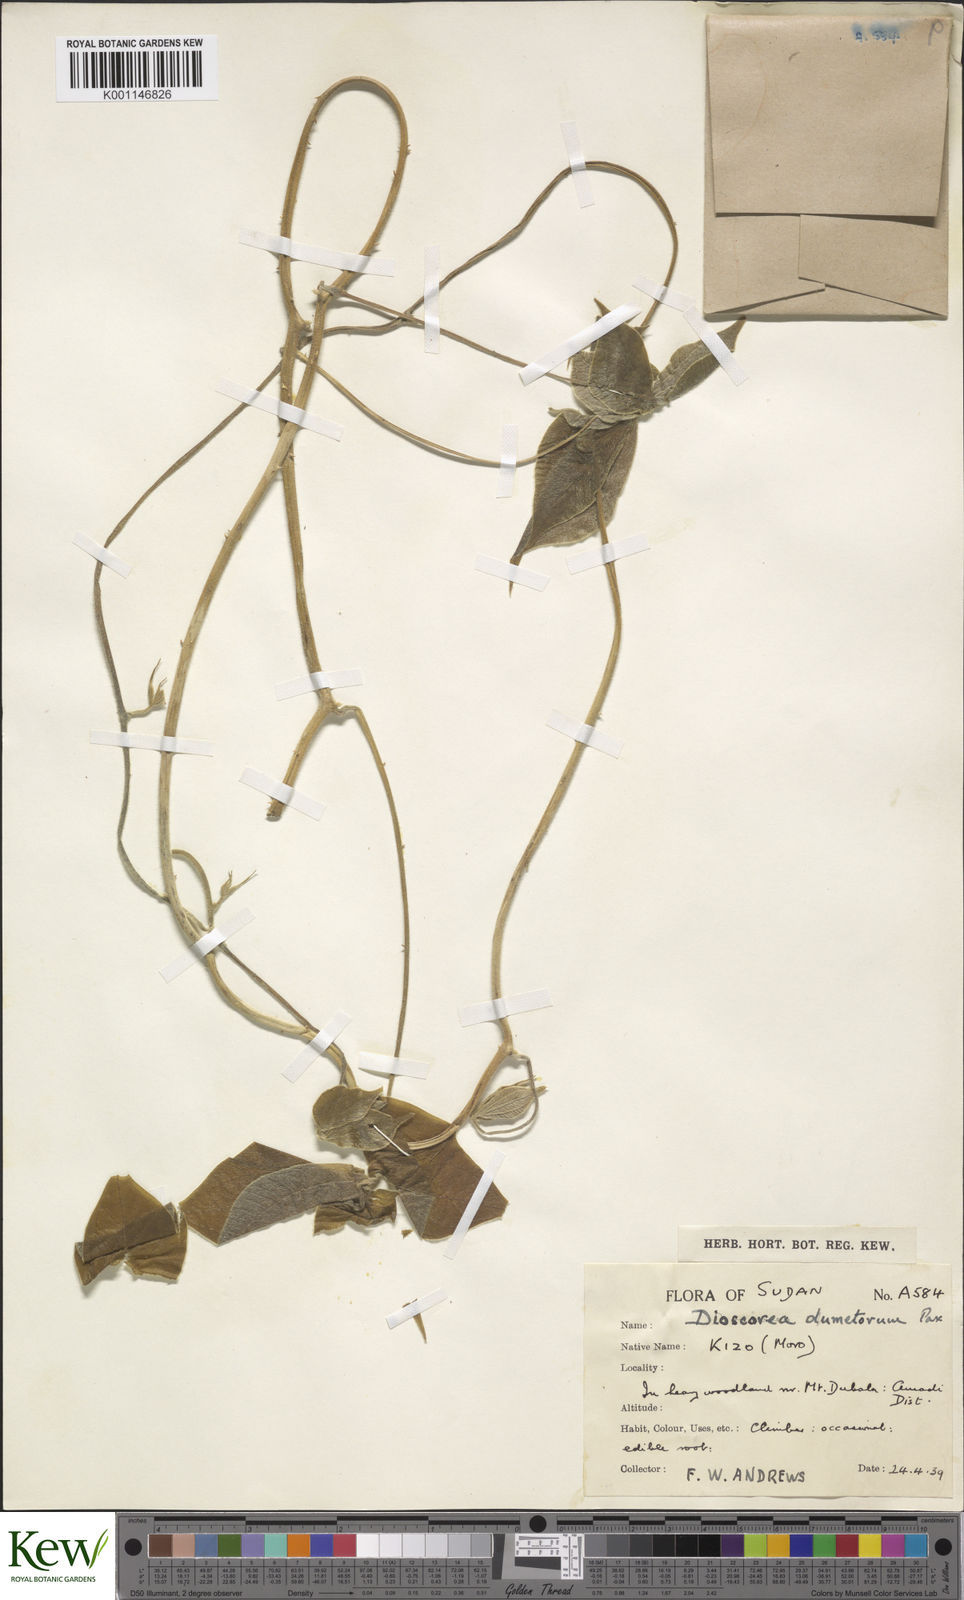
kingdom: Plantae
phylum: Tracheophyta
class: Liliopsida
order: Dioscoreales
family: Dioscoreaceae
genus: Dioscorea
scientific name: Dioscorea dumetorum
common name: African bitter yam
